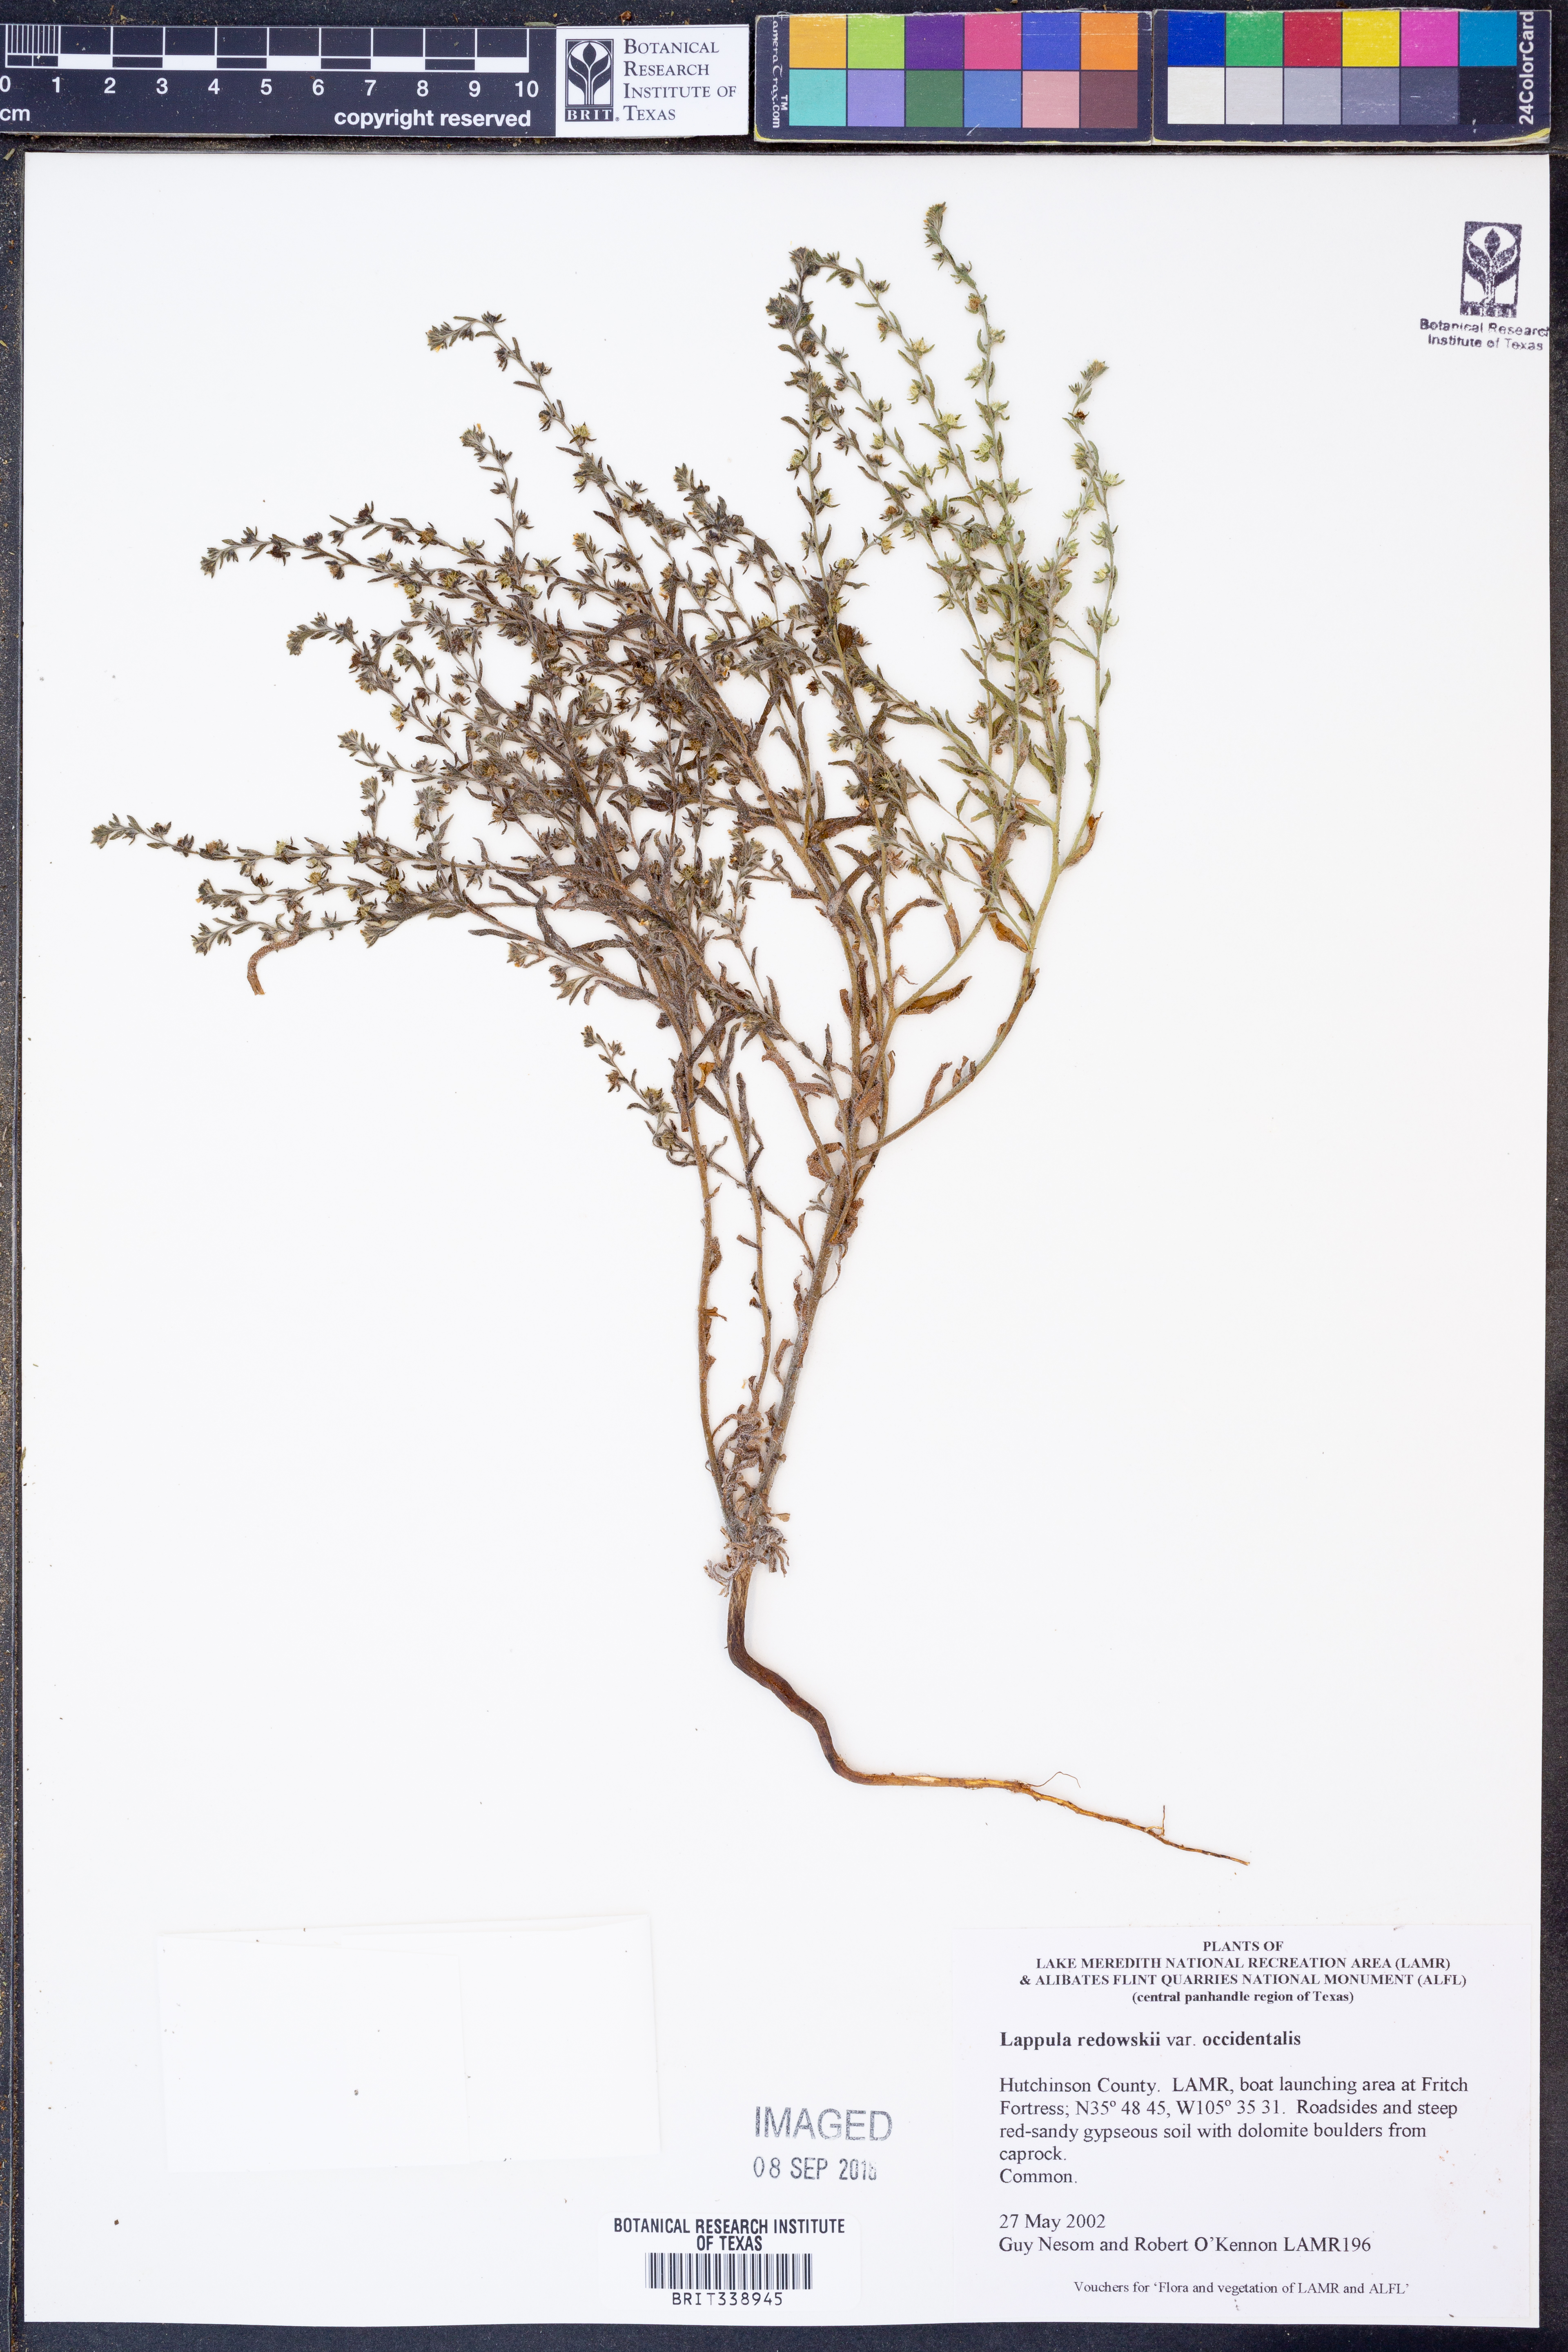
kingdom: Plantae
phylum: Tracheophyta
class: Magnoliopsida
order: Boraginales
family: Boraginaceae
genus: Lappula
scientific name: Lappula occidentalis
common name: Western stickseed
